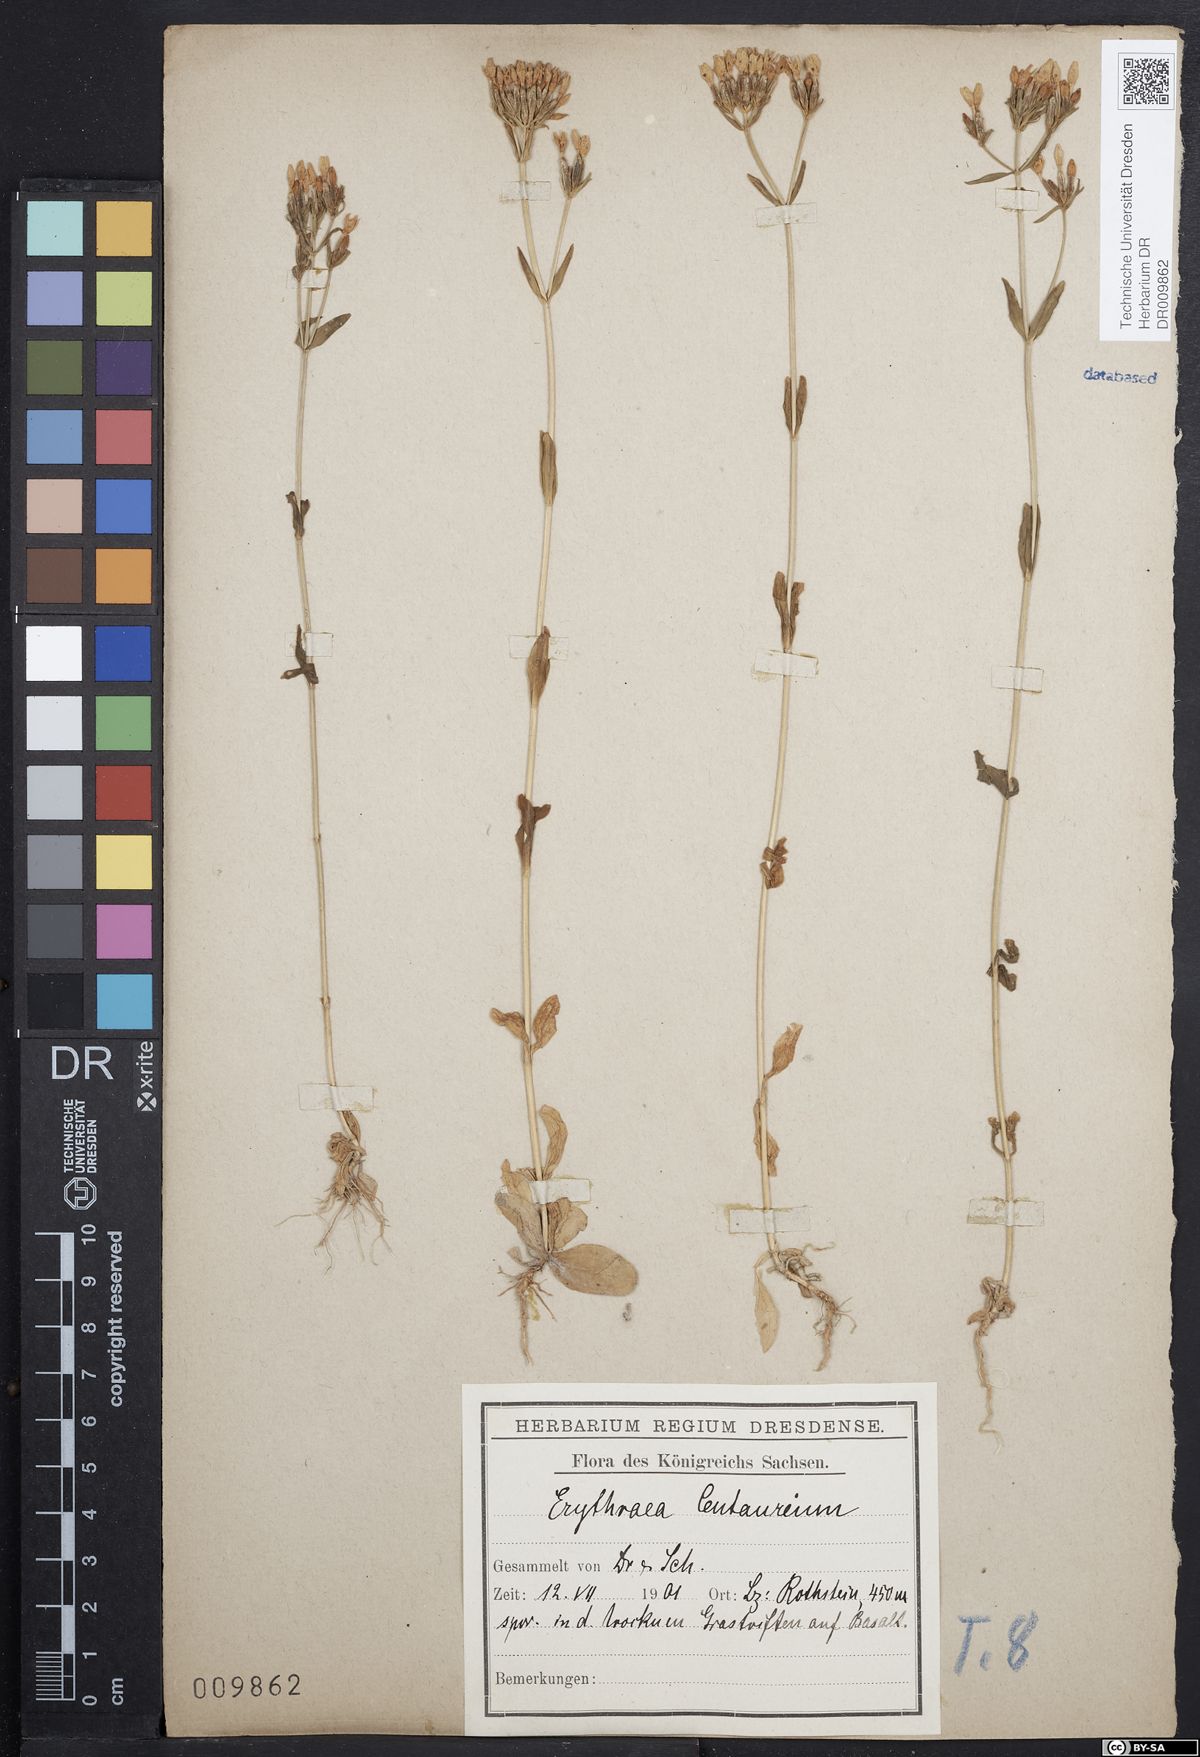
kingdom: Plantae
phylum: Tracheophyta
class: Magnoliopsida
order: Gentianales
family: Gentianaceae
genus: Centaurium
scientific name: Centaurium erythraea
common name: Common centaury
